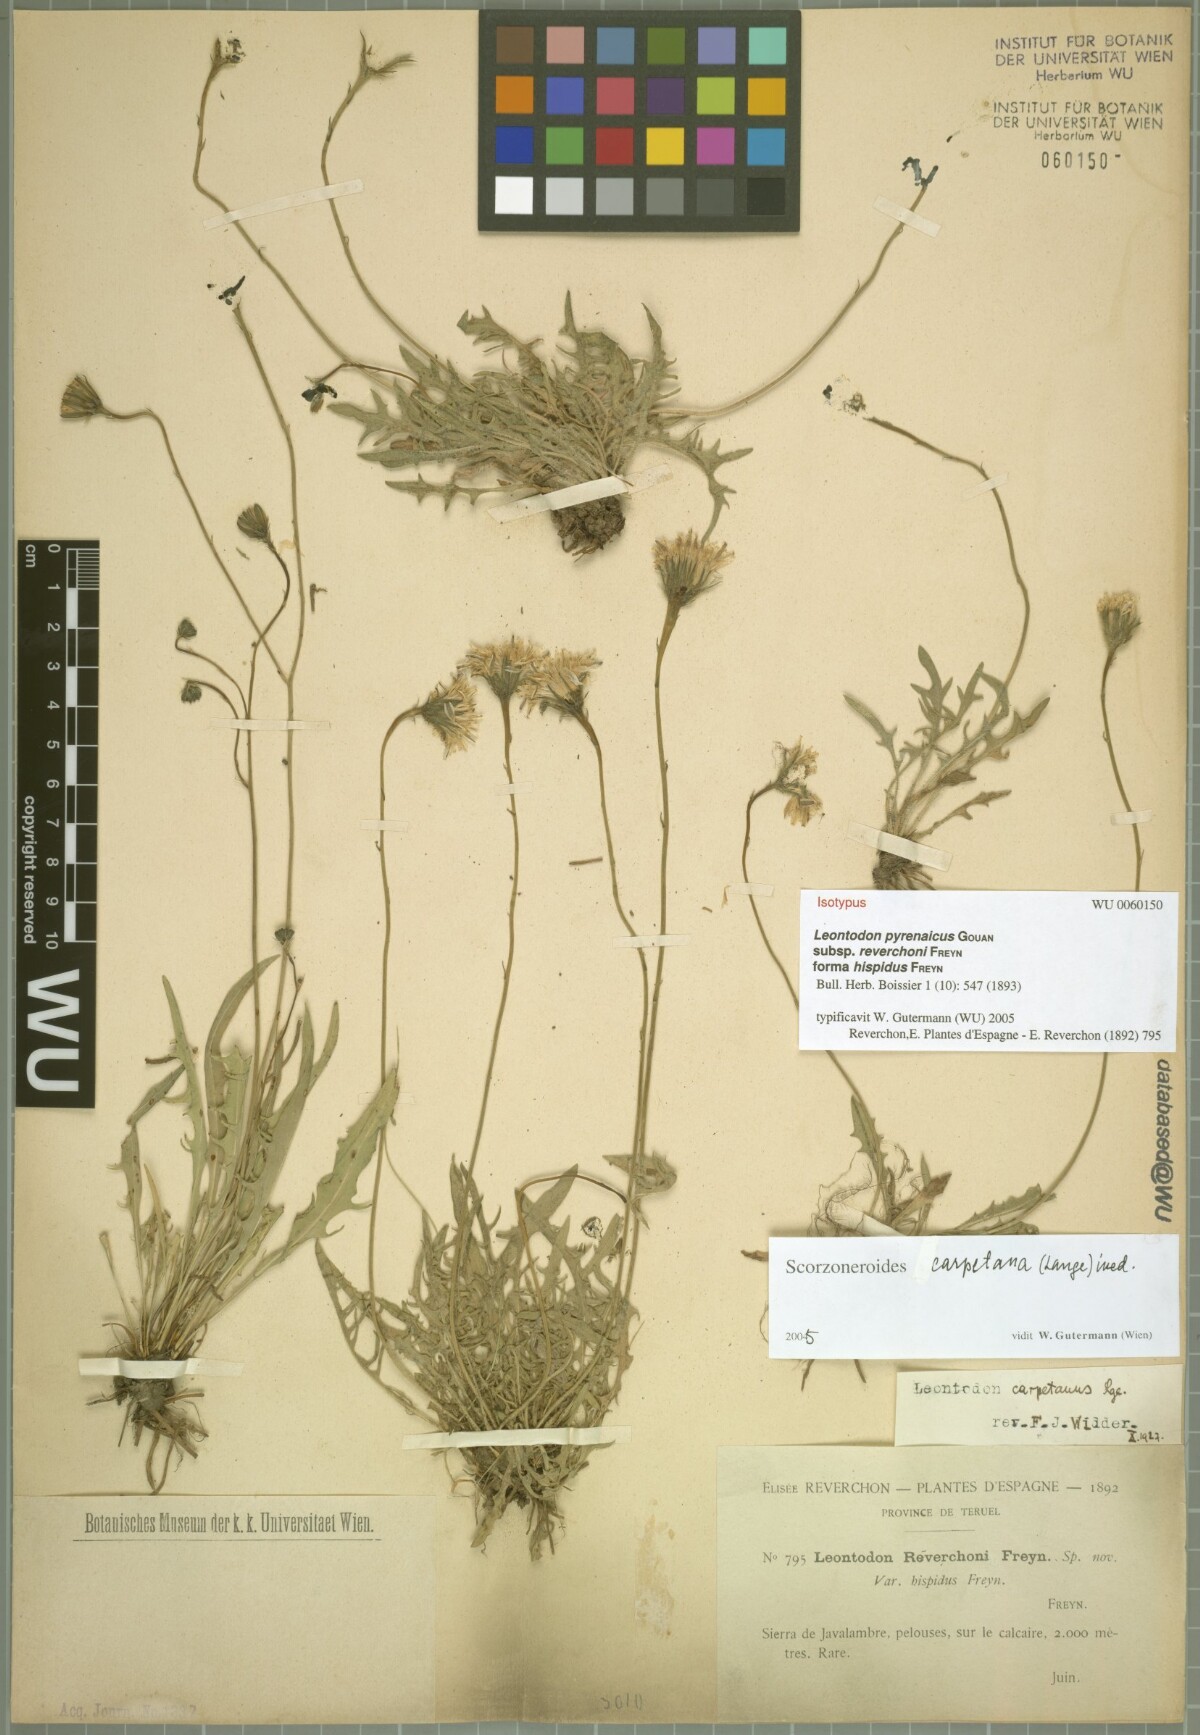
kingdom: Plantae
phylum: Tracheophyta
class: Magnoliopsida
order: Asterales
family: Asteraceae
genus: Scorzoneroides
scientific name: Scorzoneroides pyrenaica
